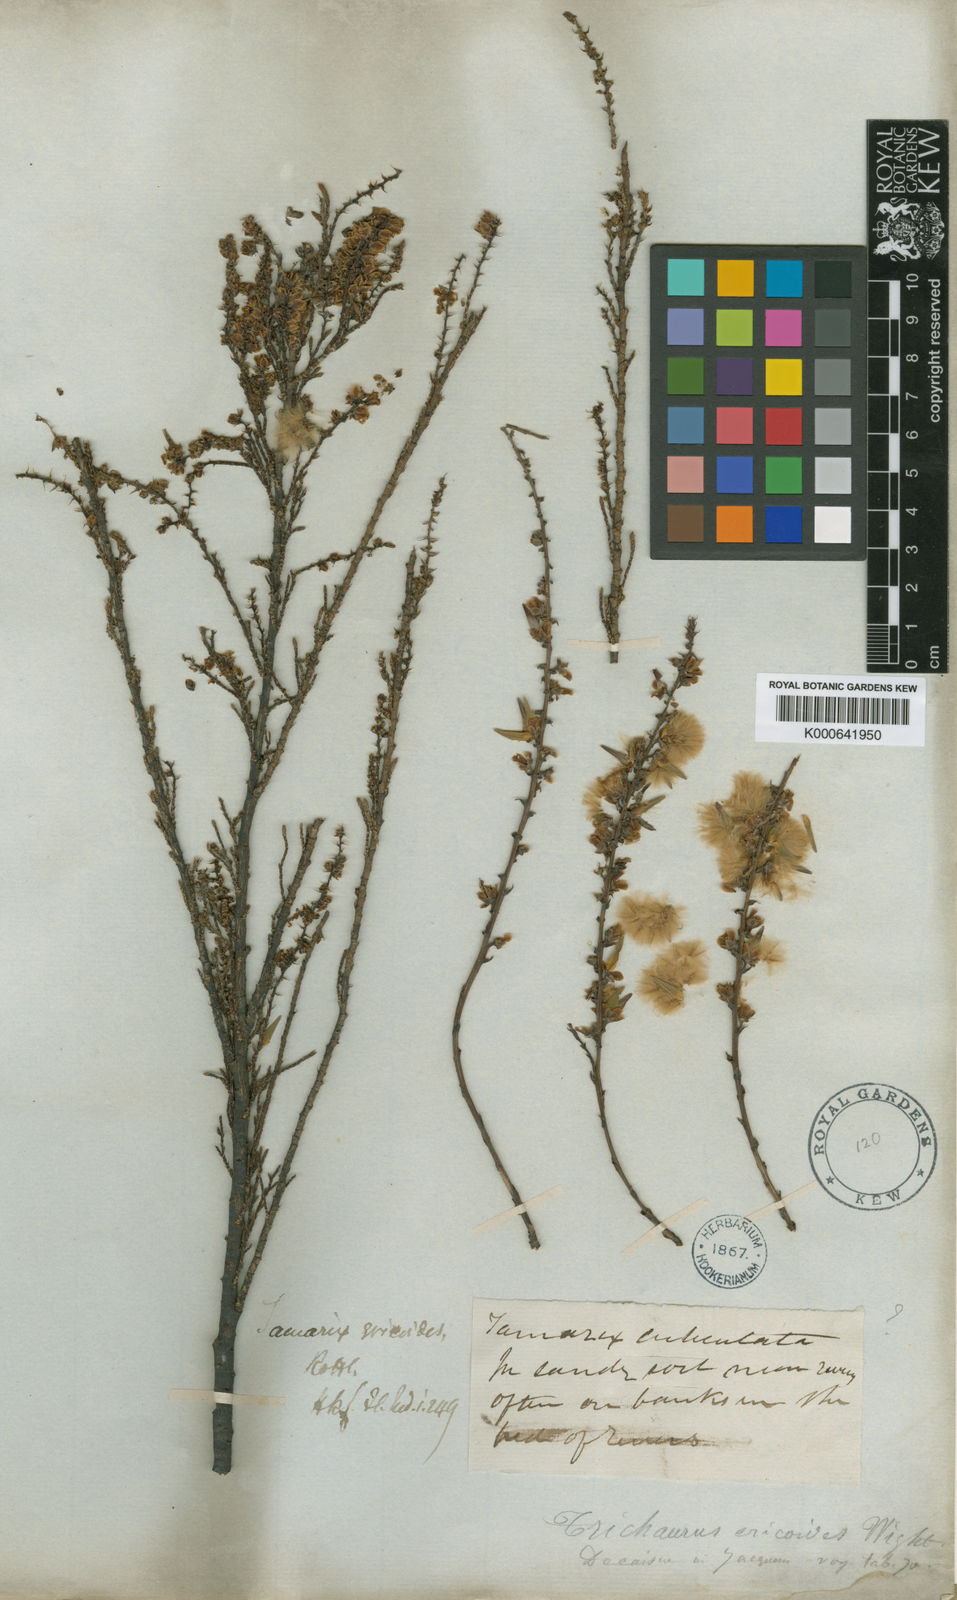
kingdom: Plantae
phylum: Tracheophyta
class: Magnoliopsida
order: Caryophyllales
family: Tamaricaceae
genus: Tamarix
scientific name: Tamarix ericoides
